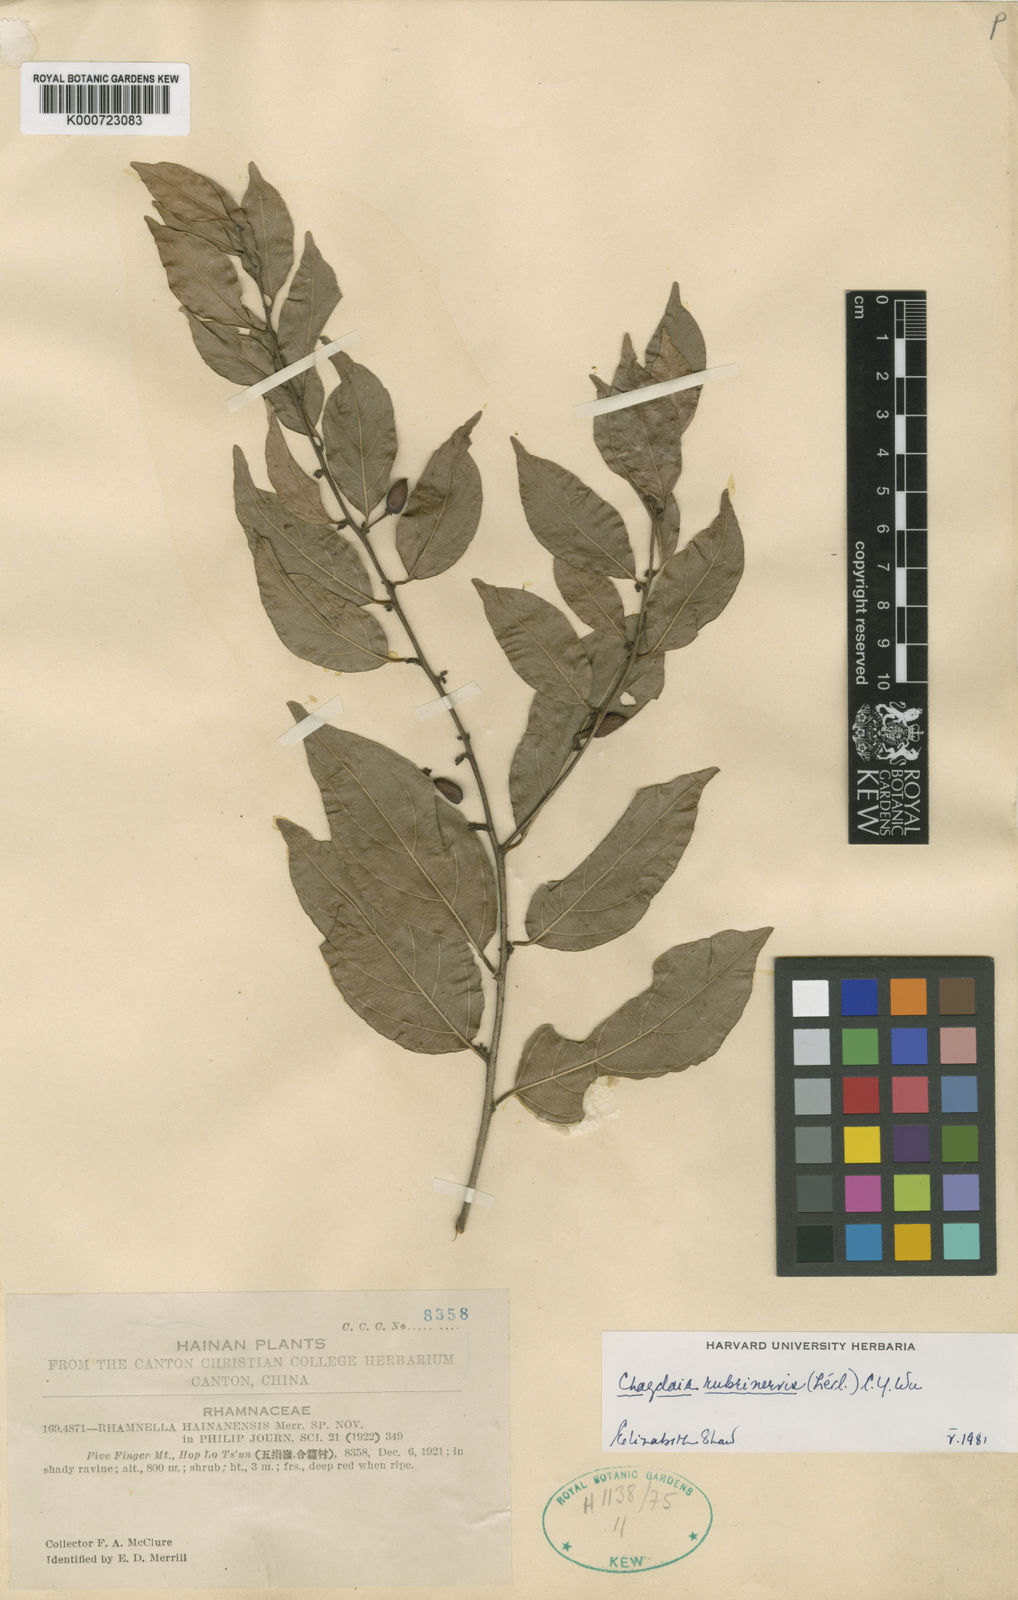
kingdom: Plantae
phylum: Tracheophyta
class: Magnoliopsida
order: Rosales
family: Rhamnaceae
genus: Berchemia
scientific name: Berchemia
